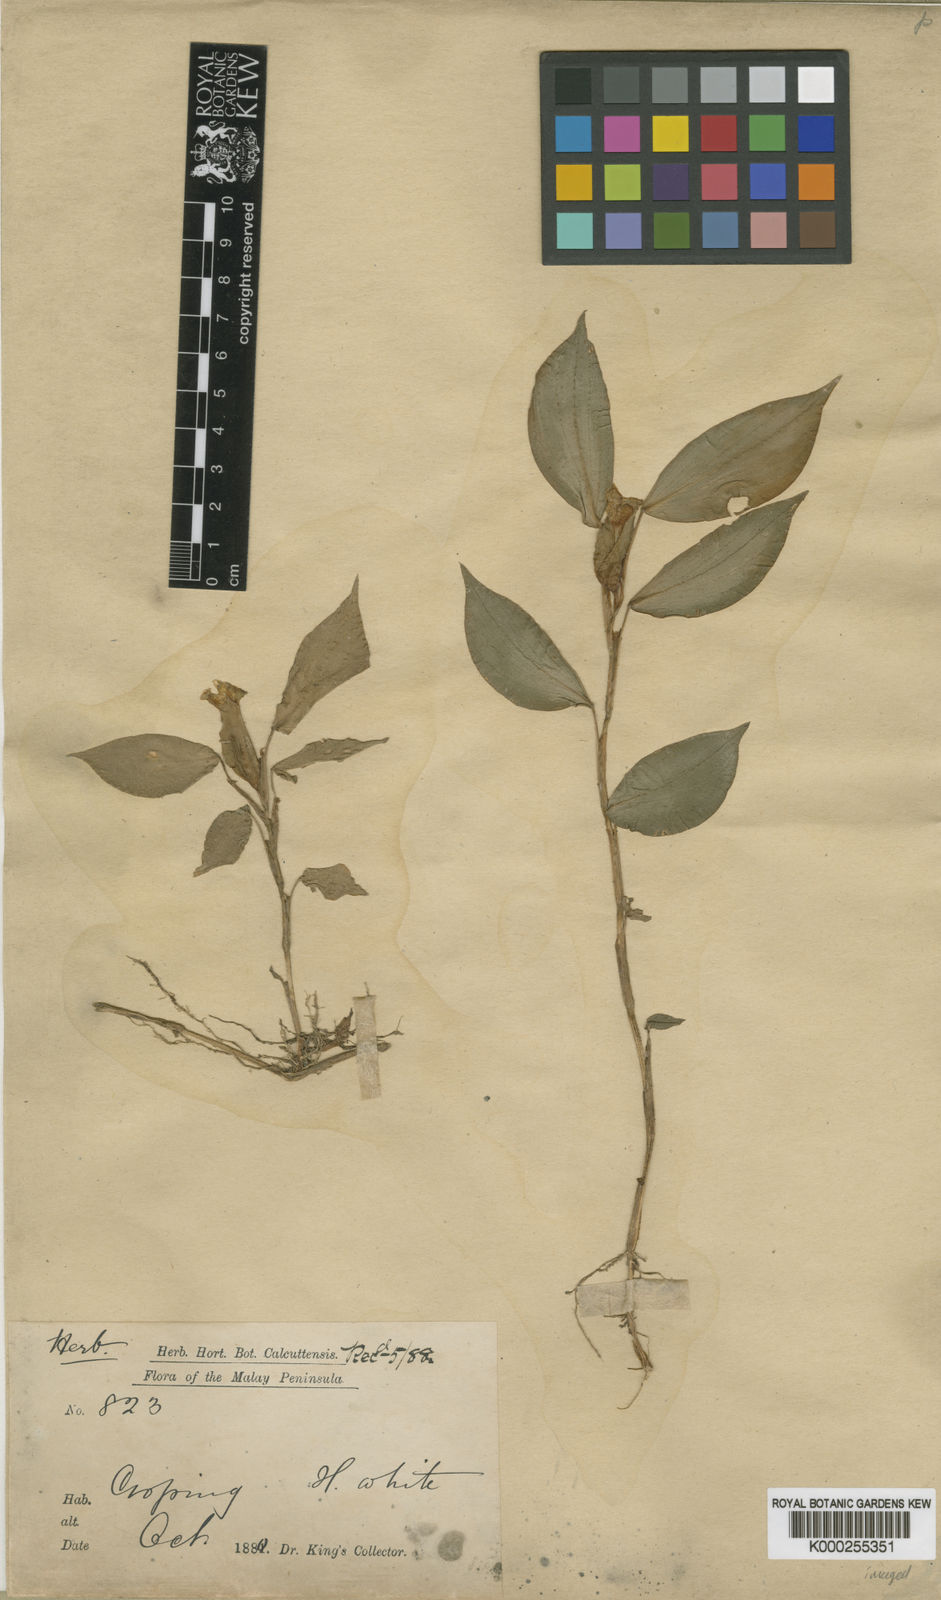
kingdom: Plantae
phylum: Tracheophyta
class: Liliopsida
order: Zingiberales
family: Zingiberaceae
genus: Camptandra
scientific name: Camptandra parvula
